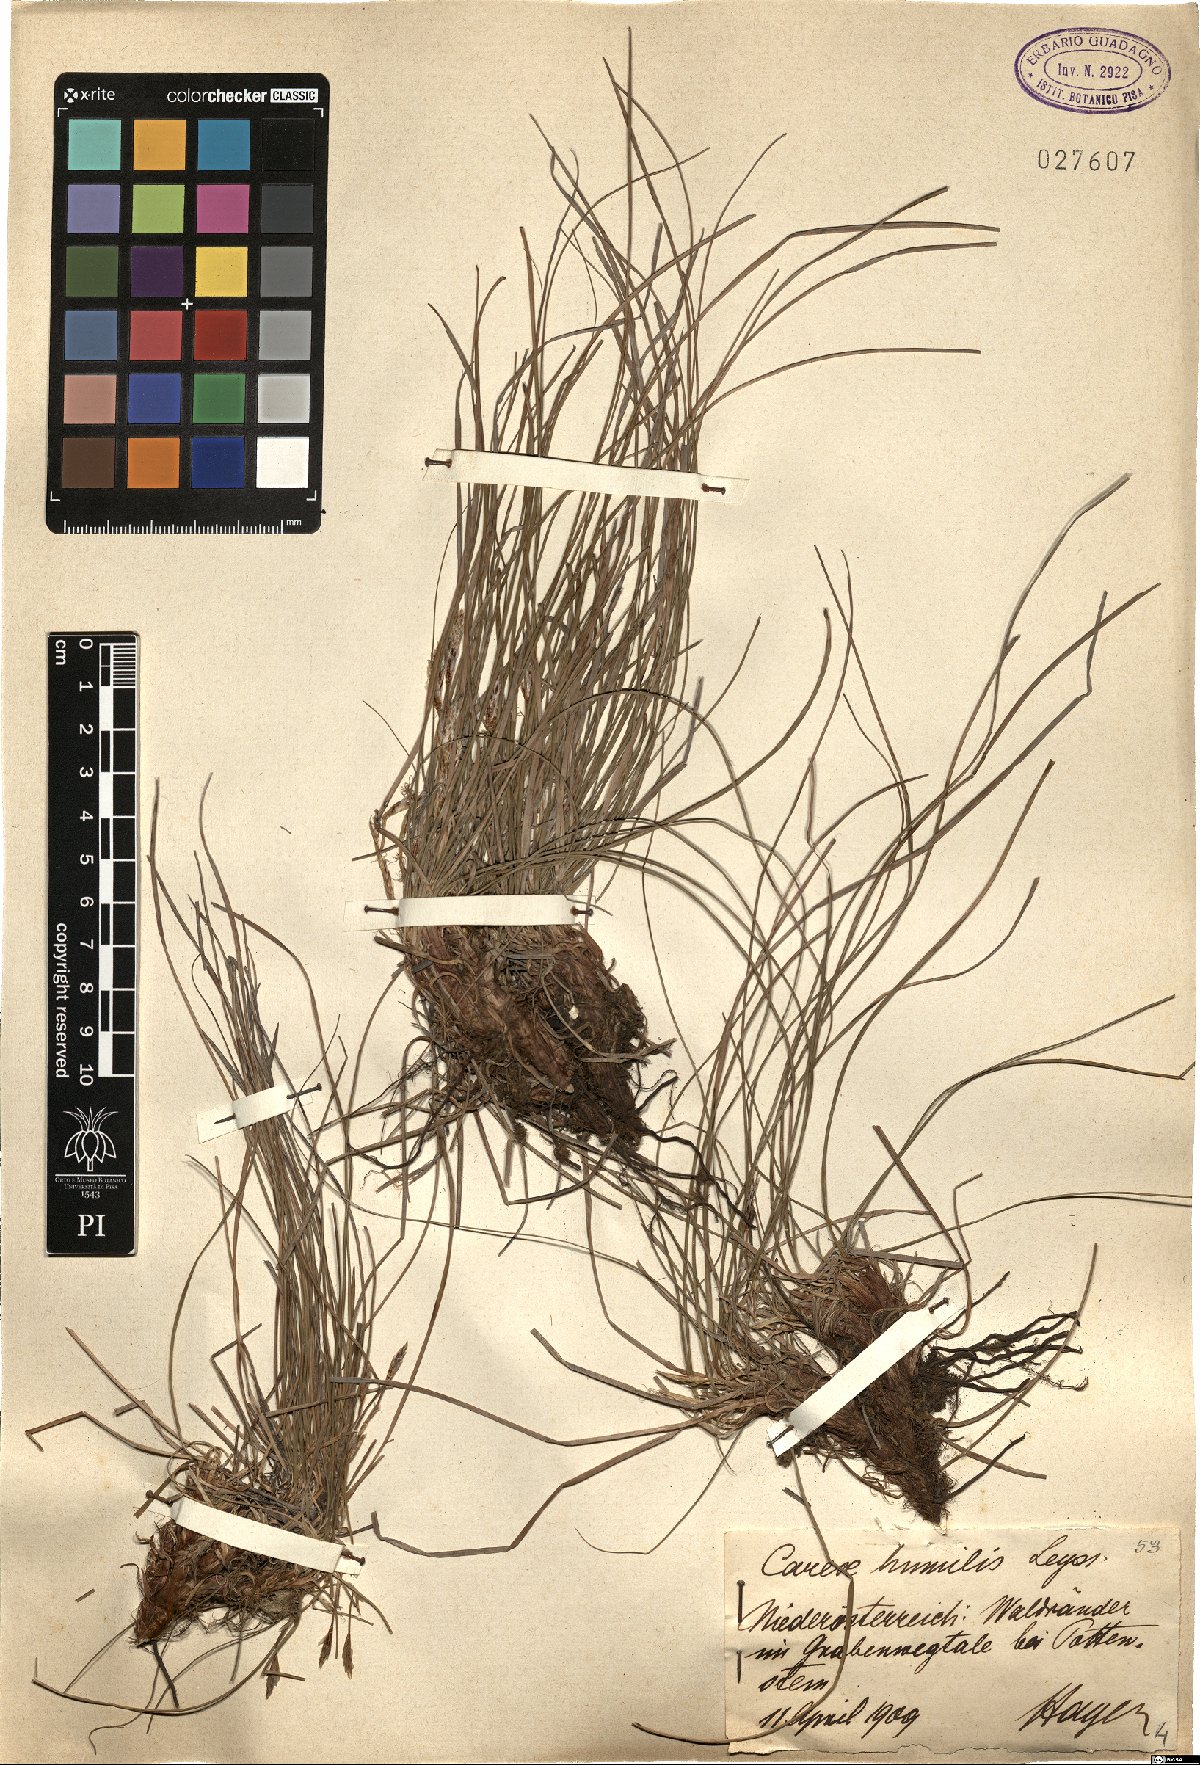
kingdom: Plantae
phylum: Tracheophyta
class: Liliopsida
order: Poales
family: Cyperaceae
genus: Carex
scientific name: Carex humilis
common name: Dwarf sedge
